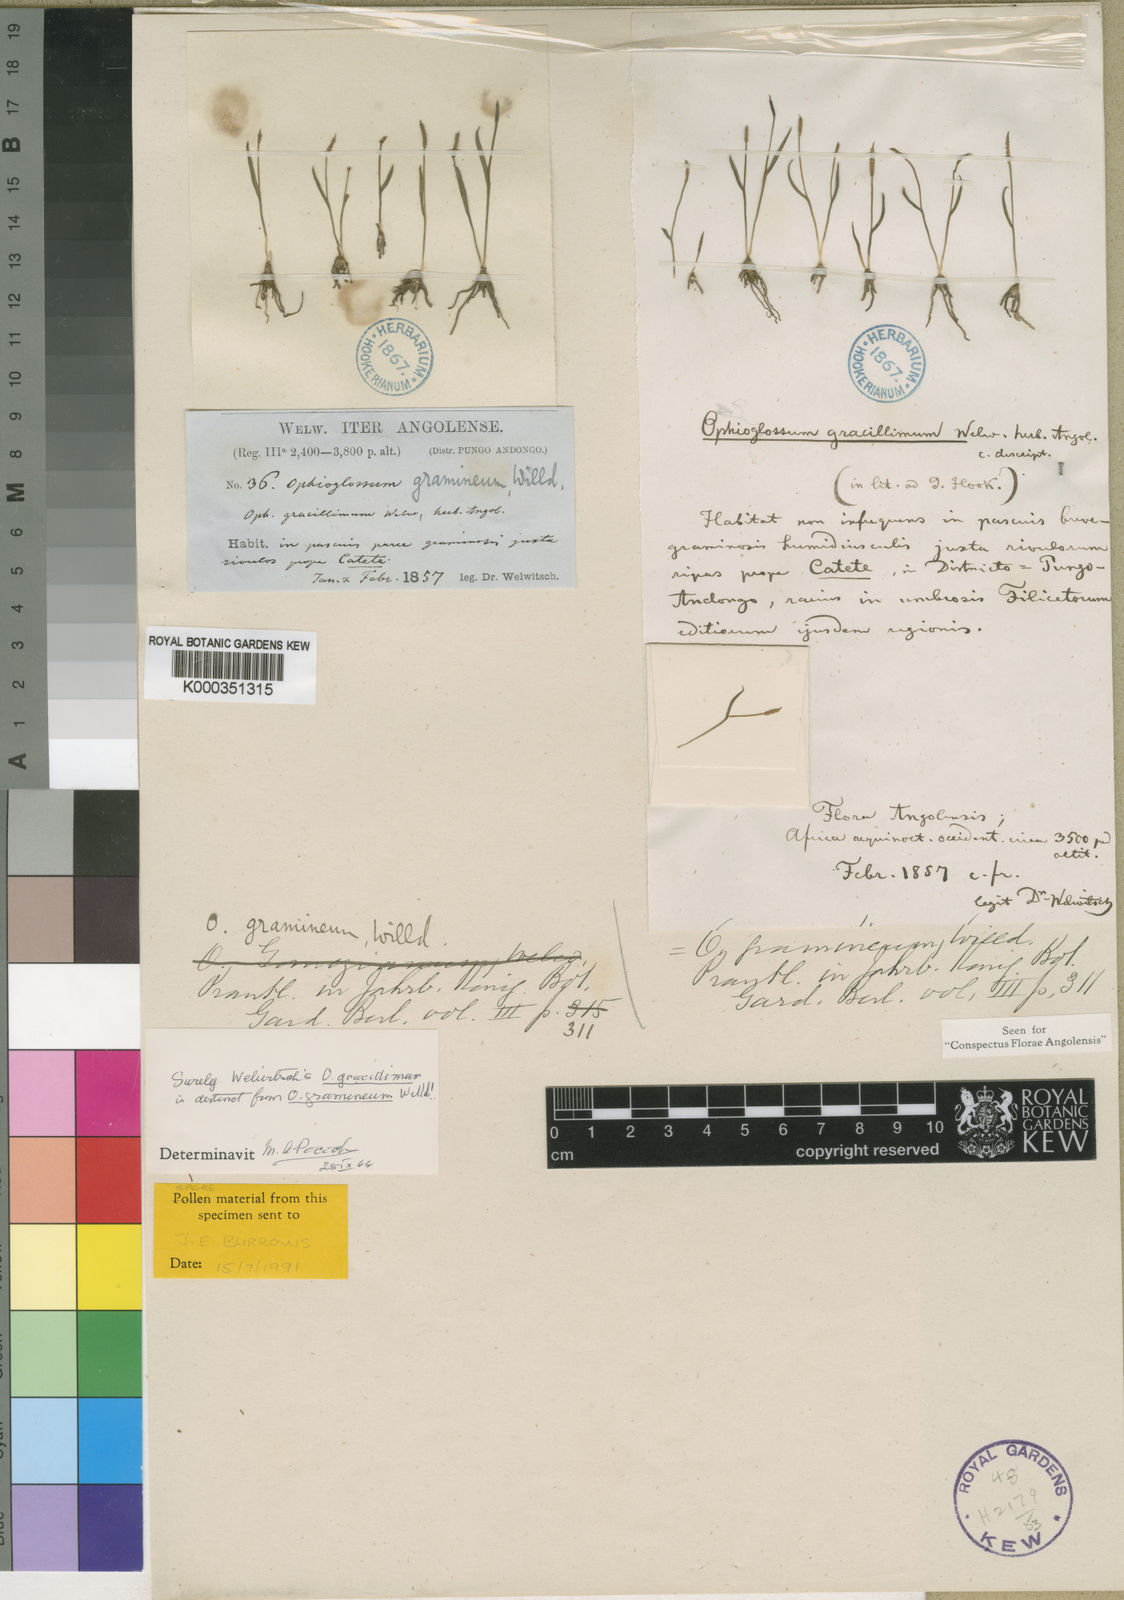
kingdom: Plantae
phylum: Tracheophyta
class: Polypodiopsida
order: Ophioglossales
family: Ophioglossaceae
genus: Ophioglossum
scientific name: Ophioglossum gramineum
